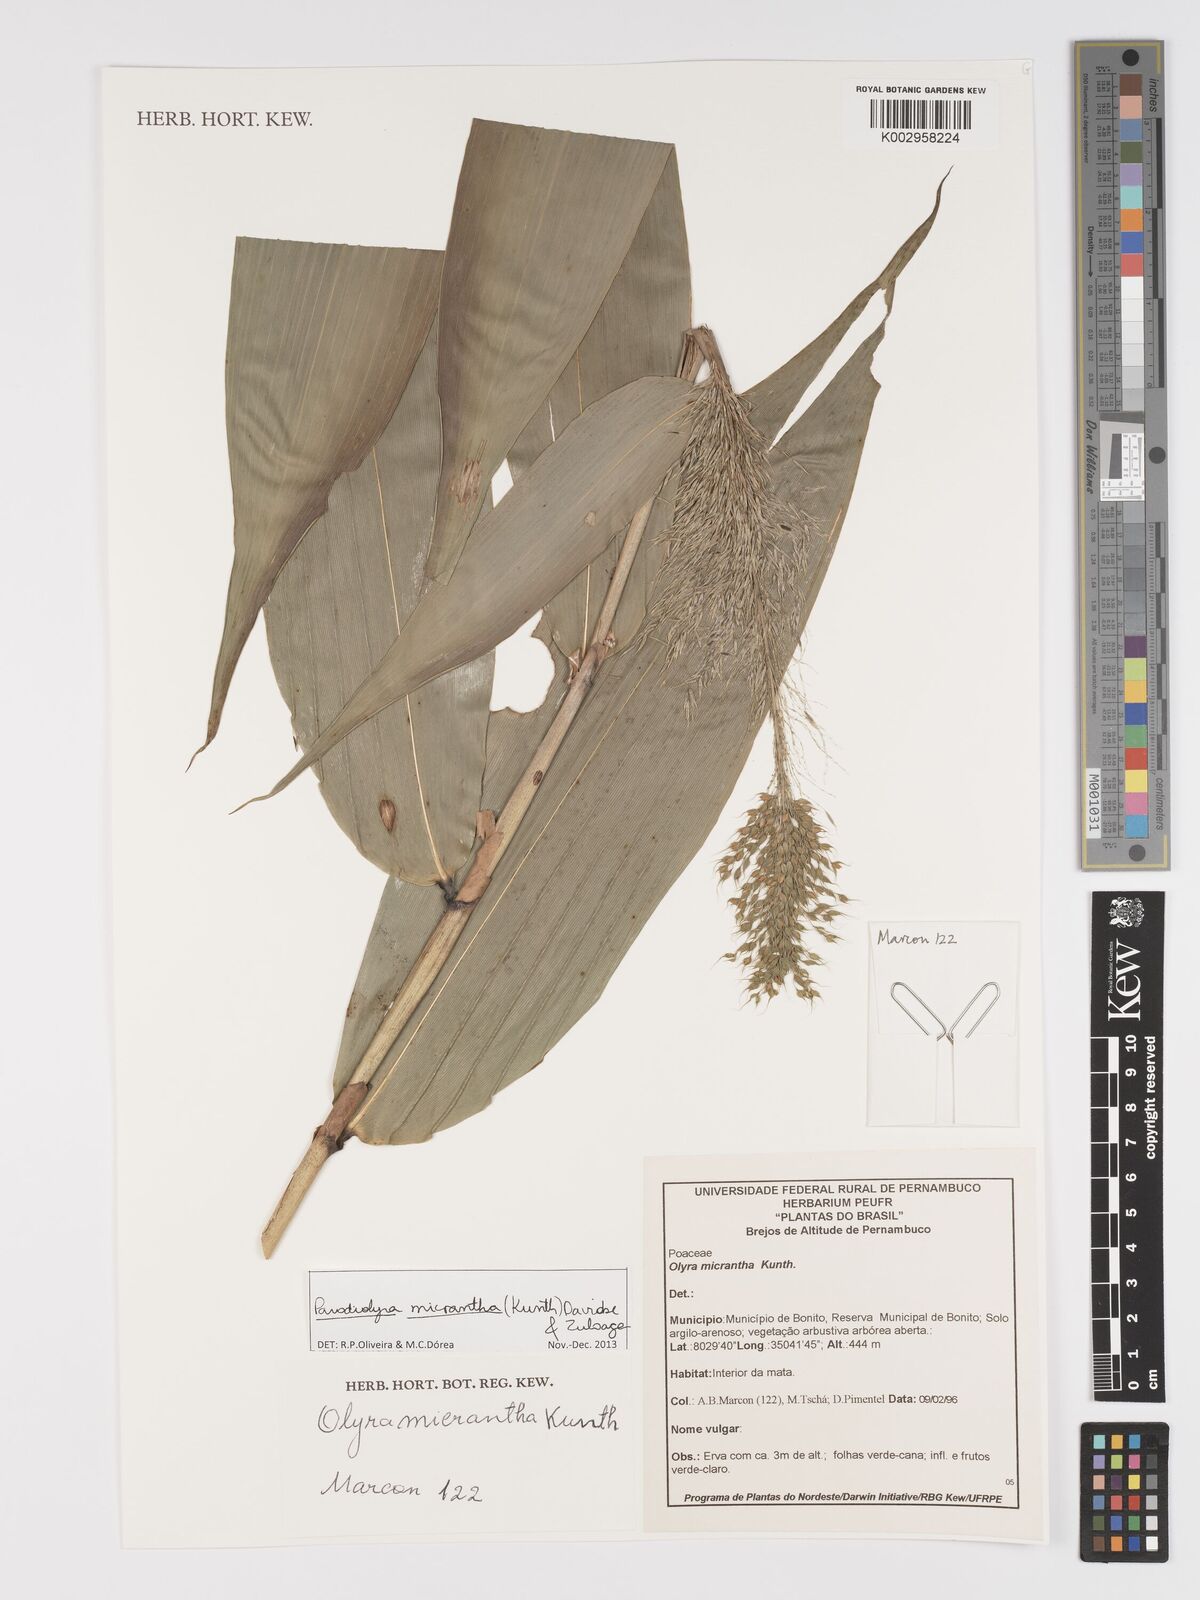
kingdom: Plantae
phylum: Tracheophyta
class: Liliopsida
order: Poales
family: Poaceae
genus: Taquara
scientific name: Taquara micrantha
